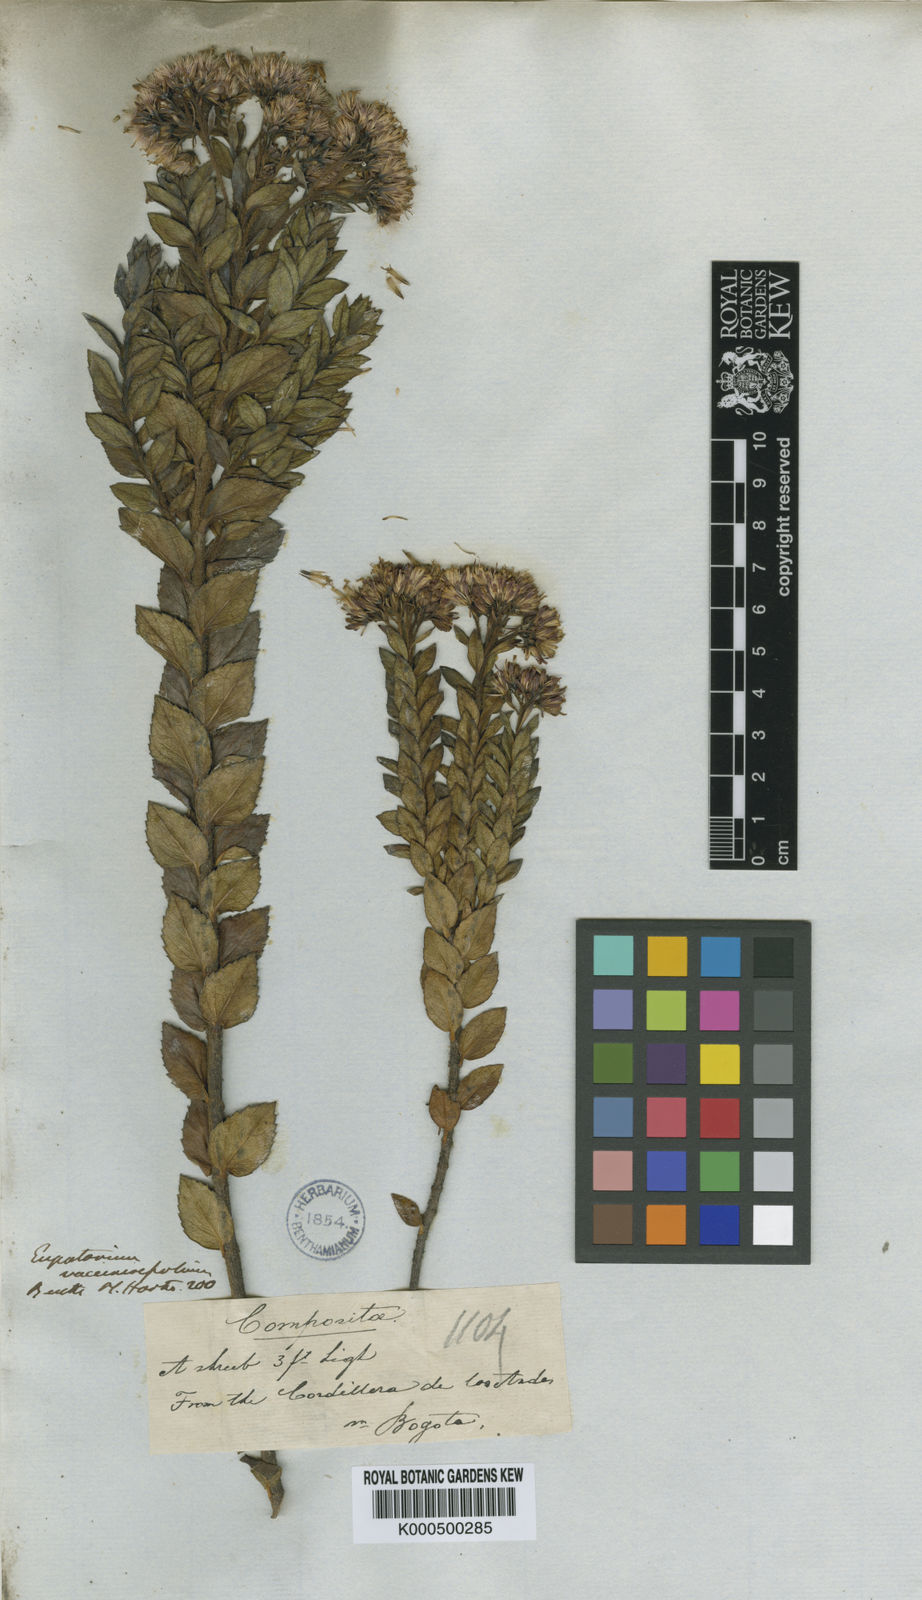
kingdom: Plantae
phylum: Tracheophyta
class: Magnoliopsida
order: Asterales
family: Asteraceae
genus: Ageratina
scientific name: Ageratina vacciniifolia
